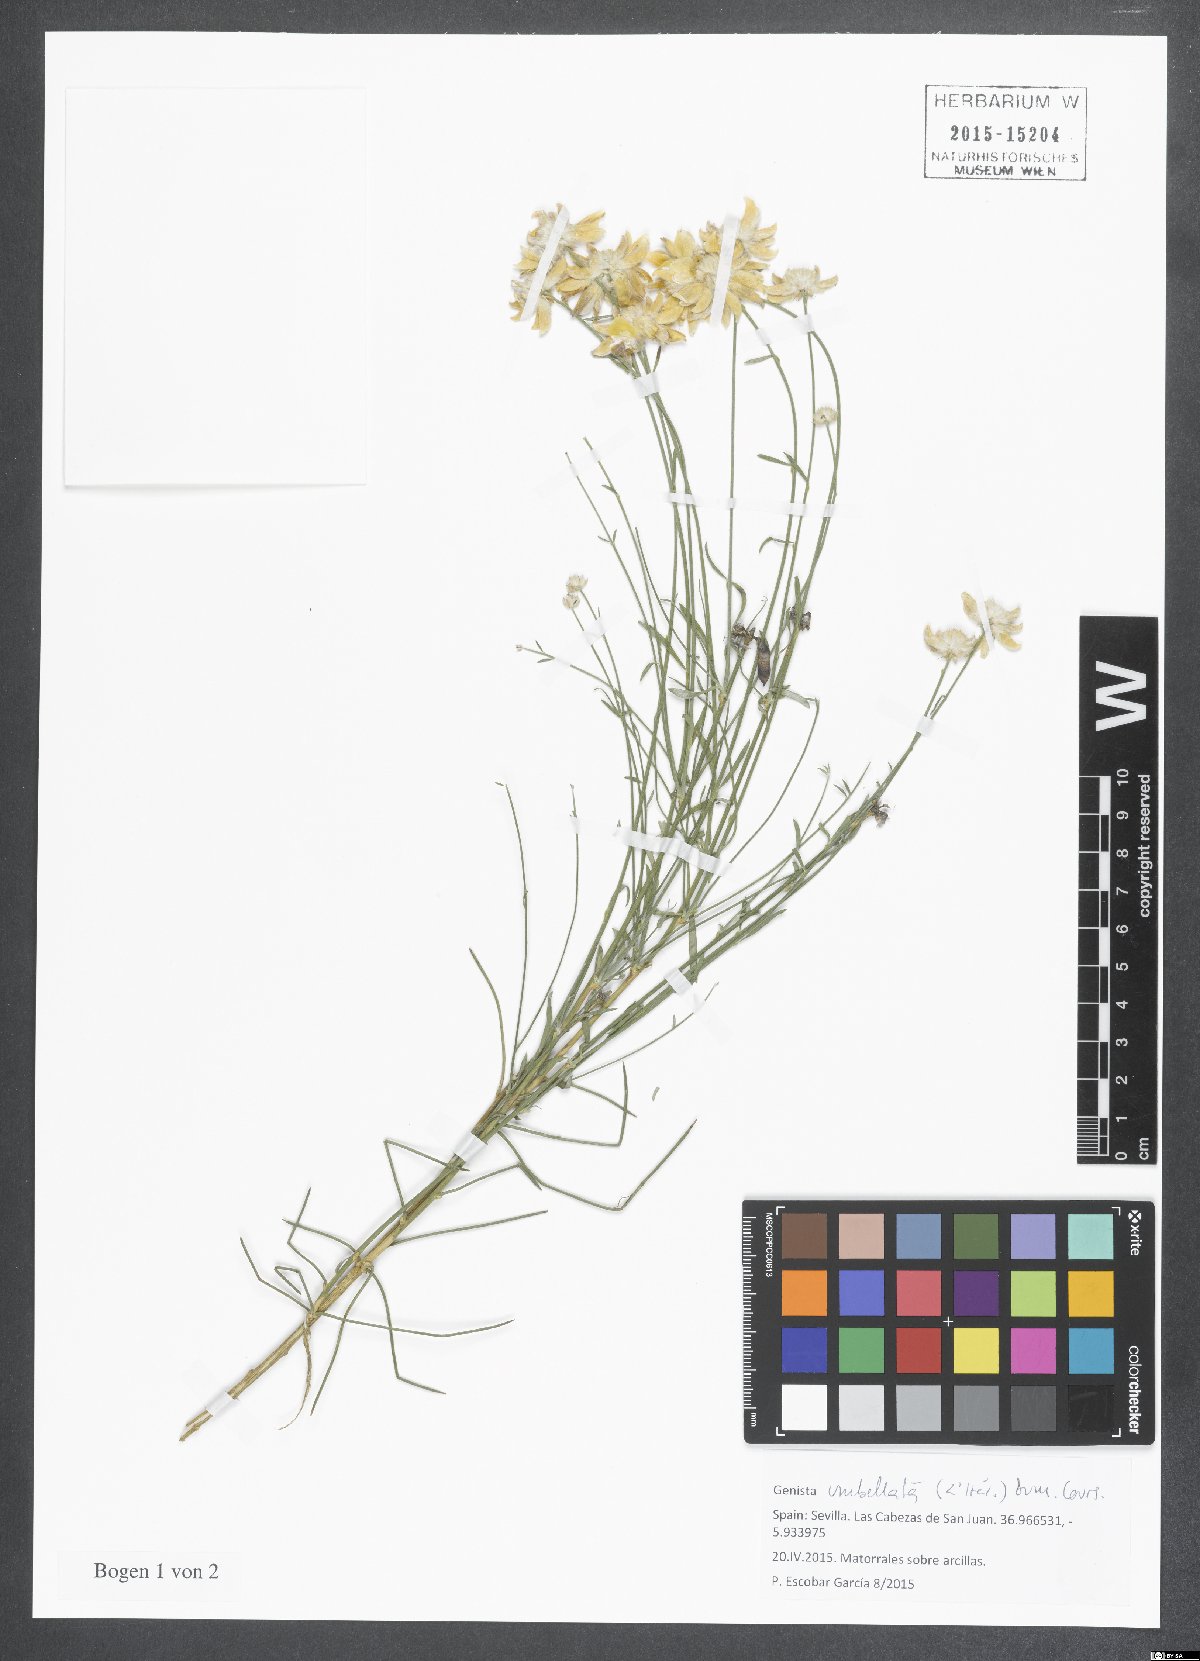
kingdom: Plantae
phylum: Tracheophyta
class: Magnoliopsida
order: Fabales
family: Fabaceae
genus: Genista
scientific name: Genista umbellata
